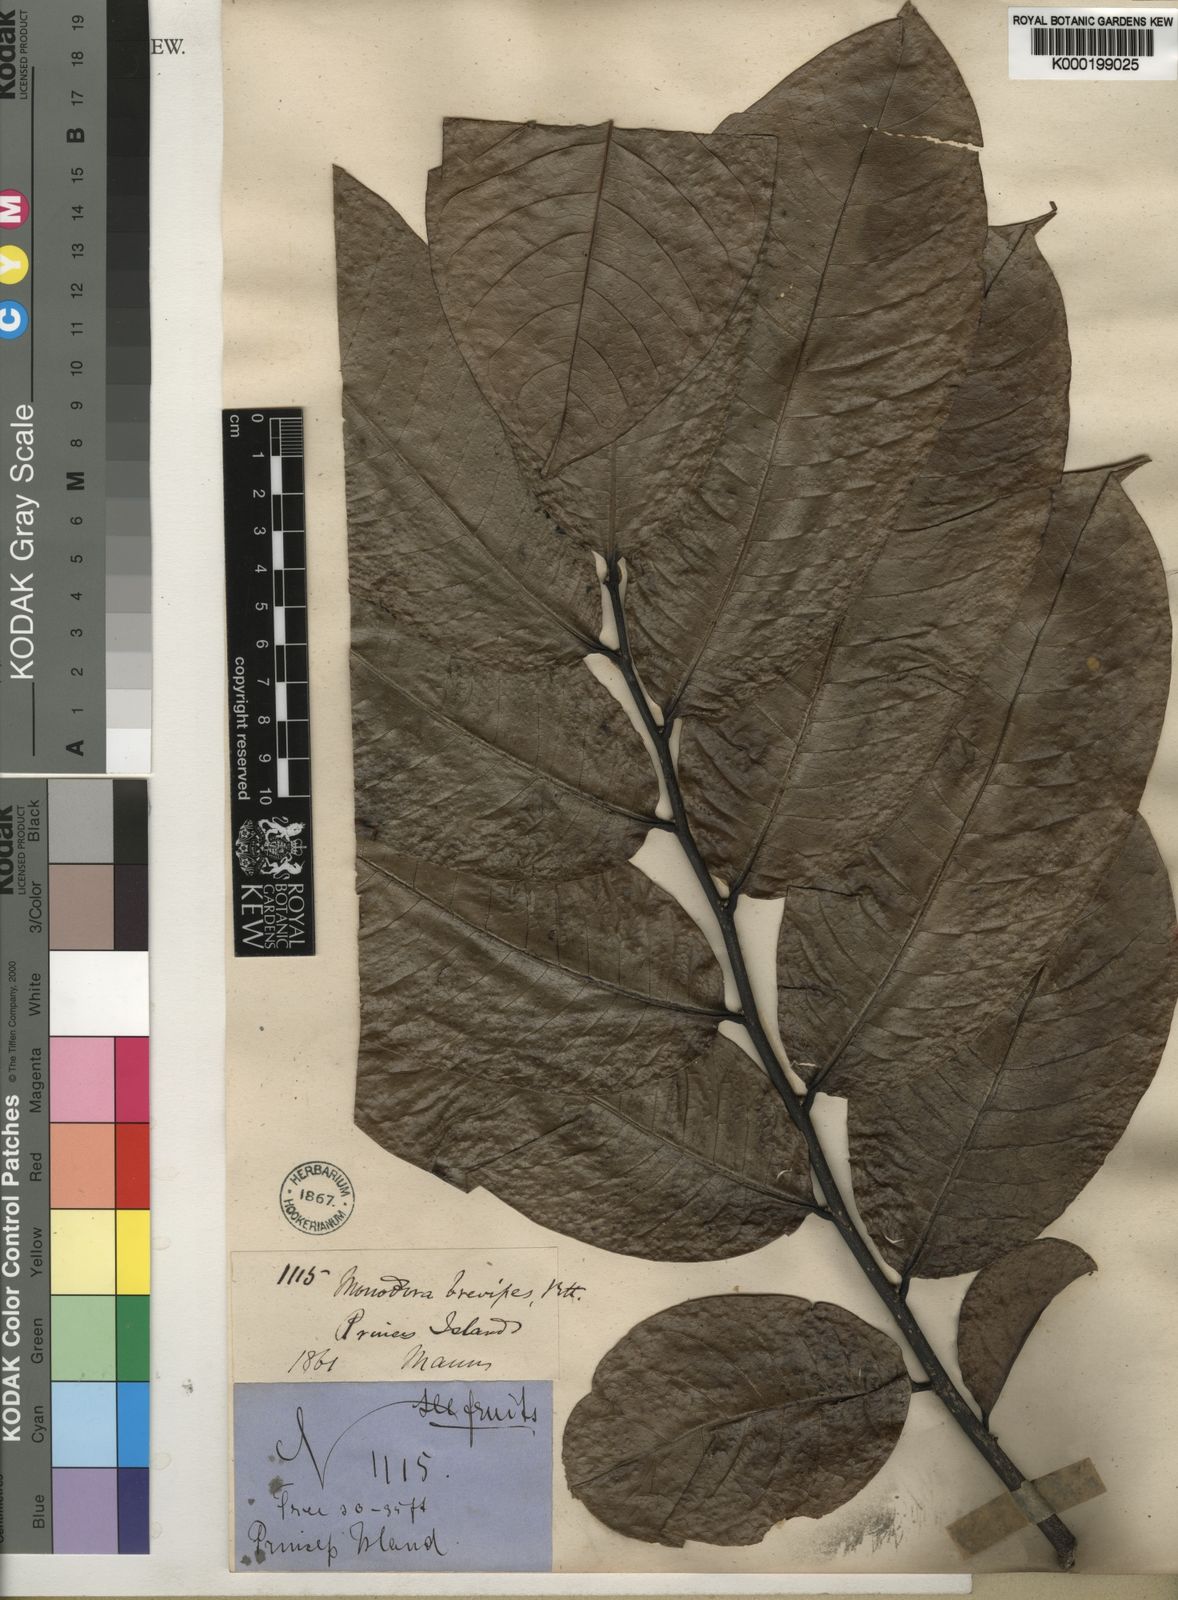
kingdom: Plantae
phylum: Tracheophyta
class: Magnoliopsida
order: Magnoliales
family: Annonaceae
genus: Monodora
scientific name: Monodora undulata
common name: Yellow-flower-nutmeg
